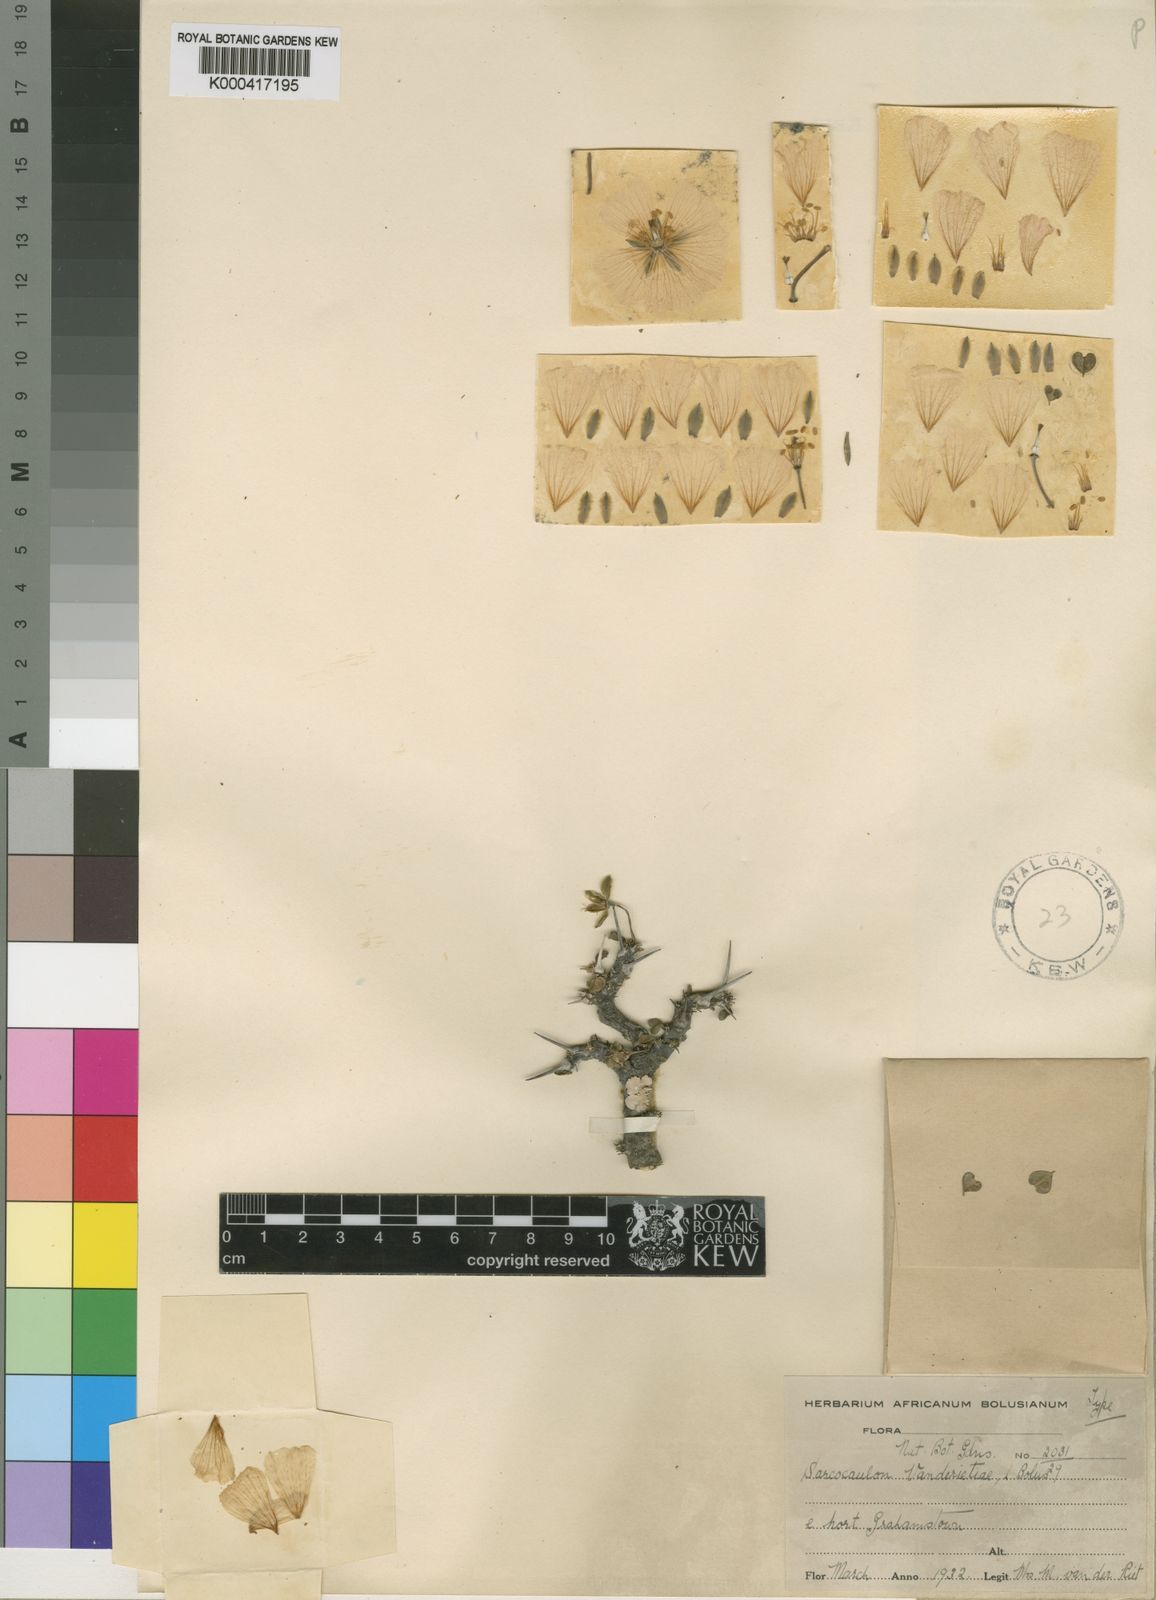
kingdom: Plantae
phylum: Tracheophyta
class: Magnoliopsida
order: Geraniales
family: Geraniaceae
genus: Monsonia
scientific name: Monsonia vanderietiae
